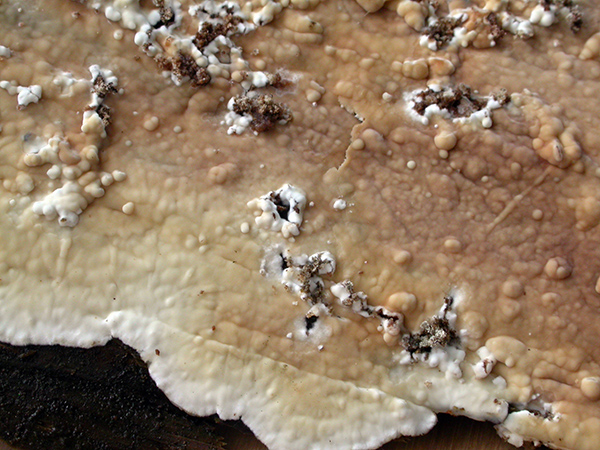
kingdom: Fungi
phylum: Basidiomycota
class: Agaricomycetes
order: Polyporales
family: Dacryobolaceae
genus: Dacryobolus
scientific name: Dacryobolus karstenii
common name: glat vulkanskorpe
